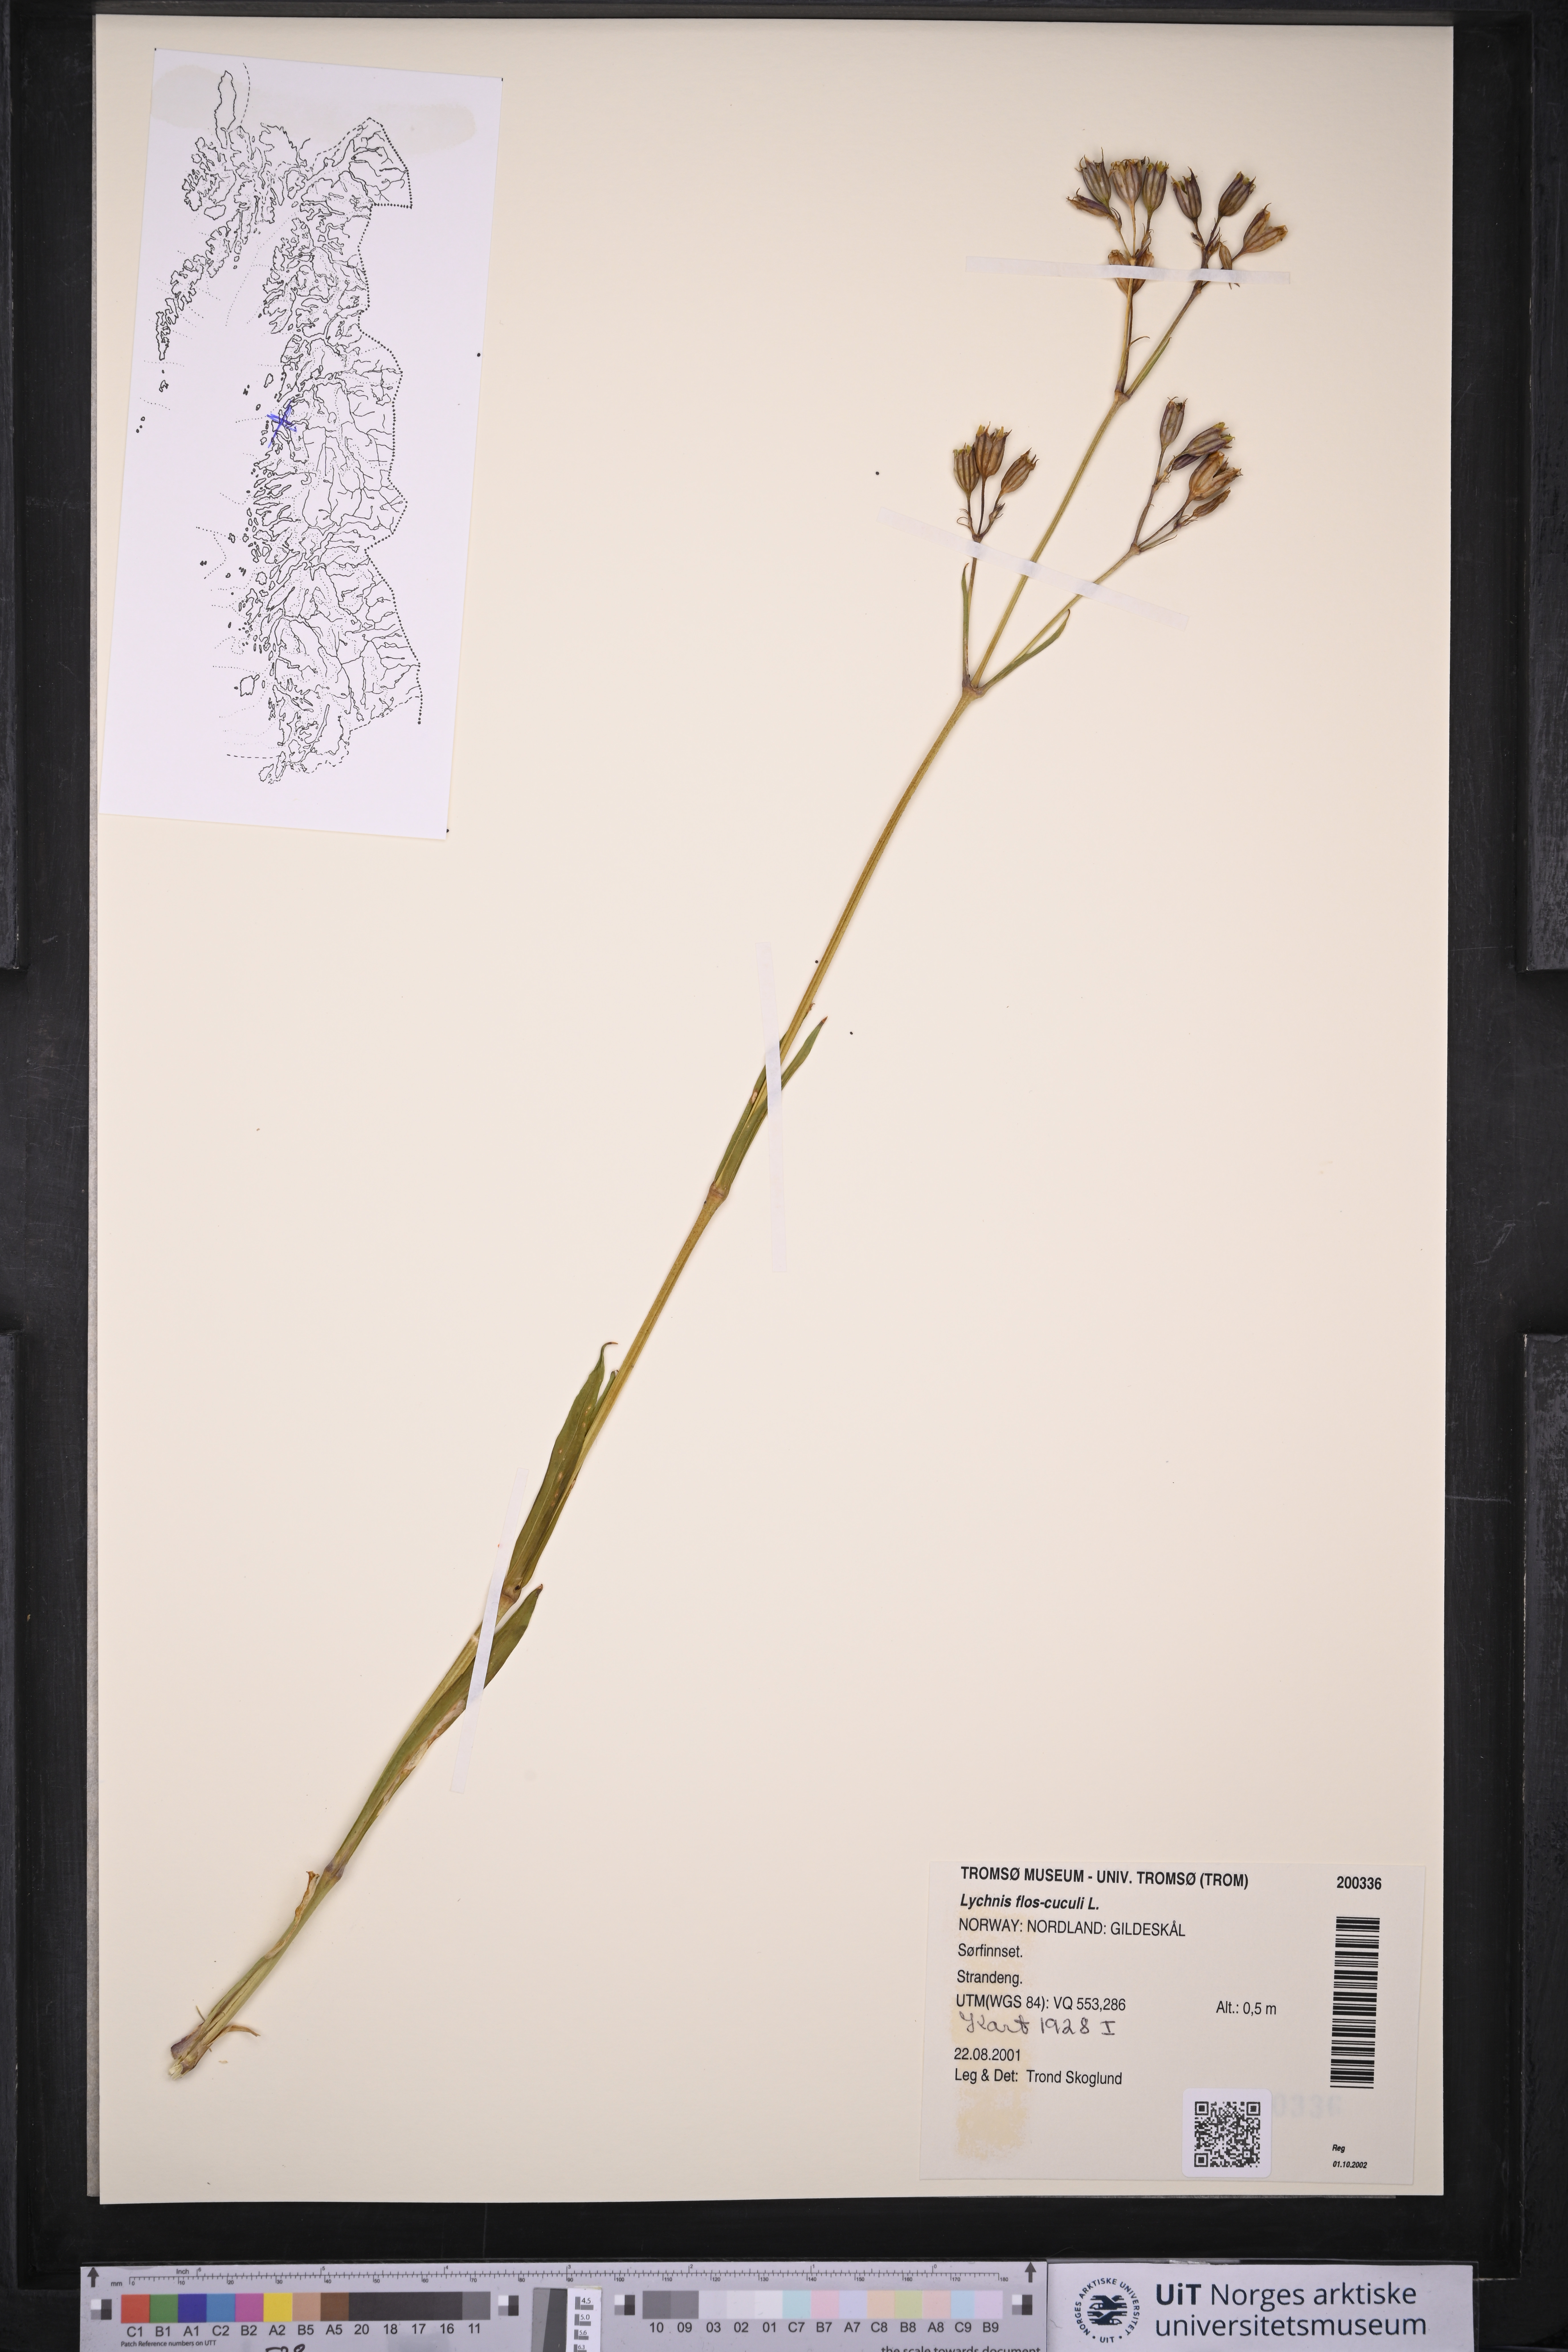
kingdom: Plantae
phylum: Tracheophyta
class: Magnoliopsida
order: Caryophyllales
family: Caryophyllaceae
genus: Silene
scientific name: Silene flos-cuculi
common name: Ragged-robin
